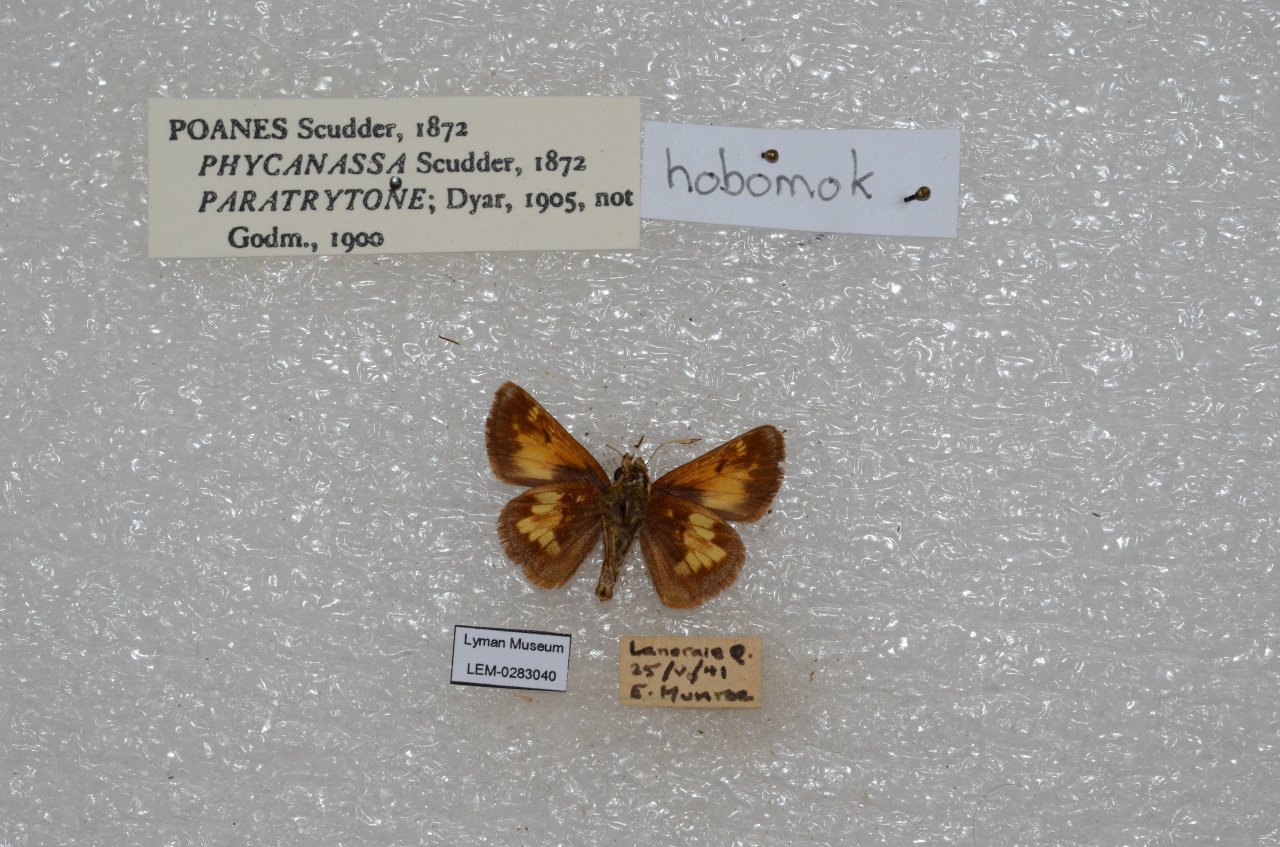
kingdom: Animalia
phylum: Arthropoda
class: Insecta
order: Lepidoptera
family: Hesperiidae
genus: Lon
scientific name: Lon hobomok
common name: Hobomok Skipper
